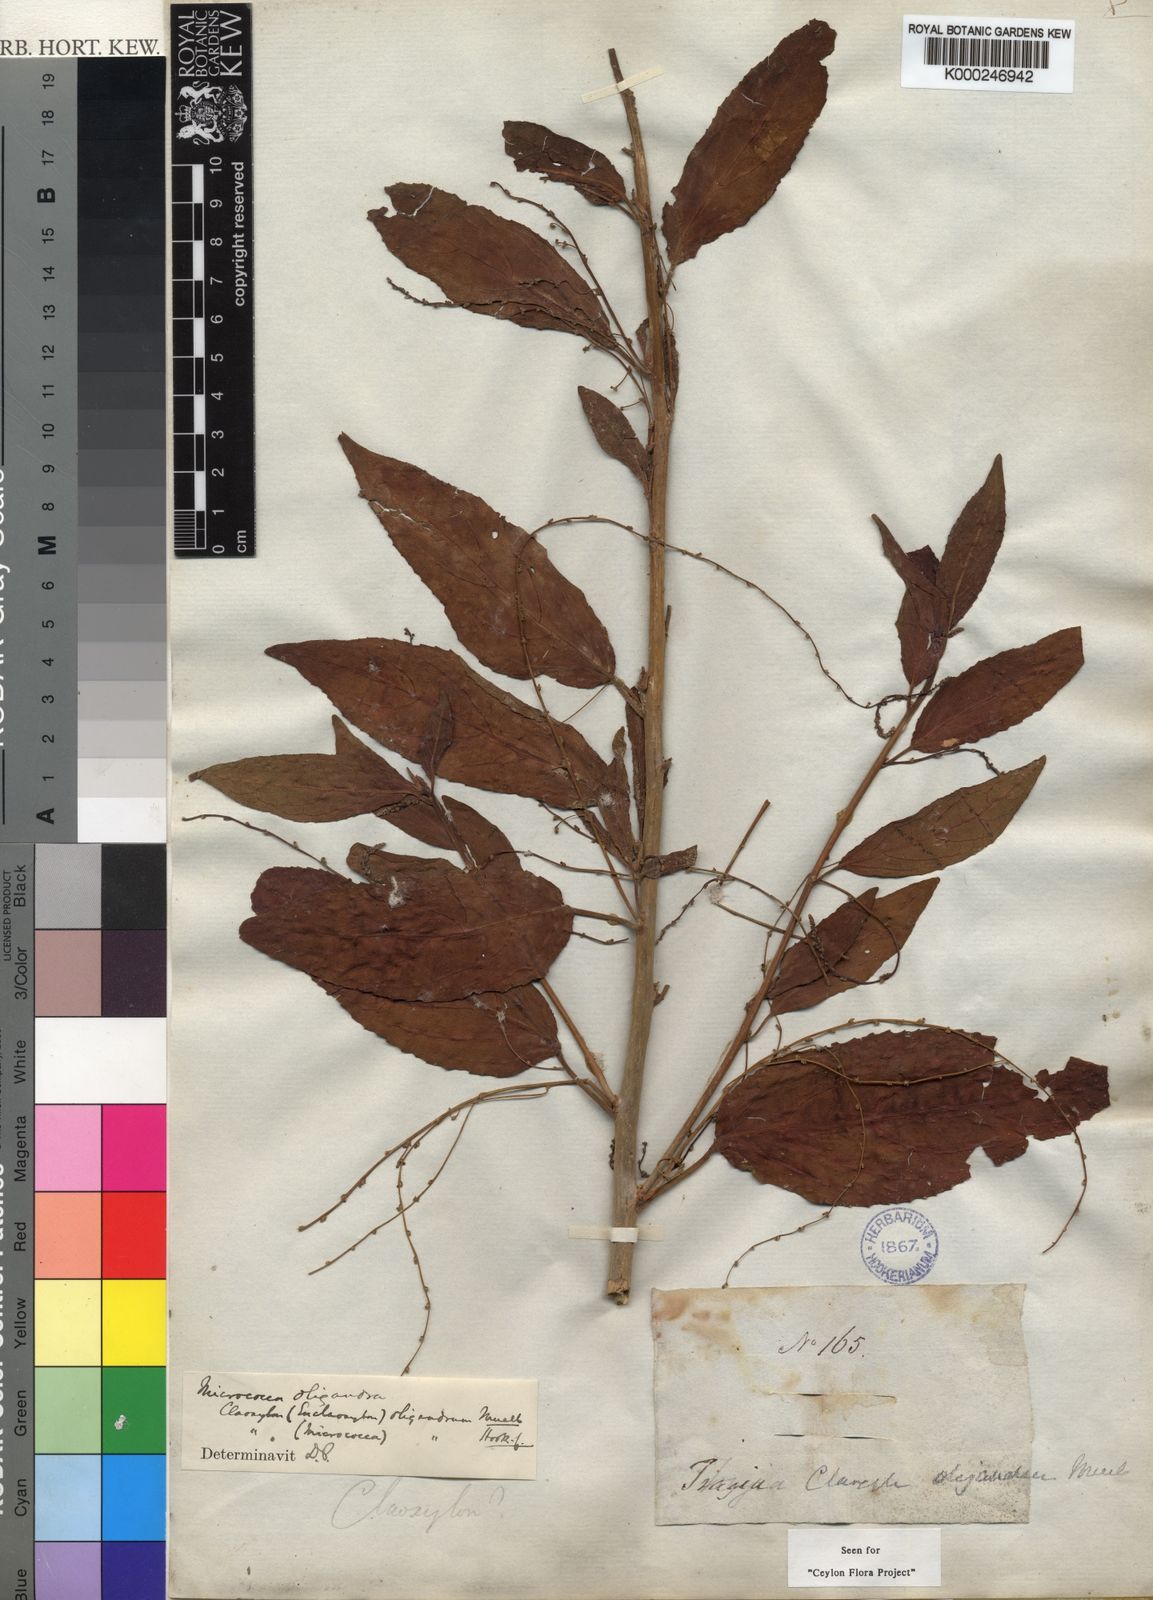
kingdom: Plantae
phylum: Tracheophyta
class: Magnoliopsida
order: Malpighiales
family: Euphorbiaceae
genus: Micrococca
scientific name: Micrococca
